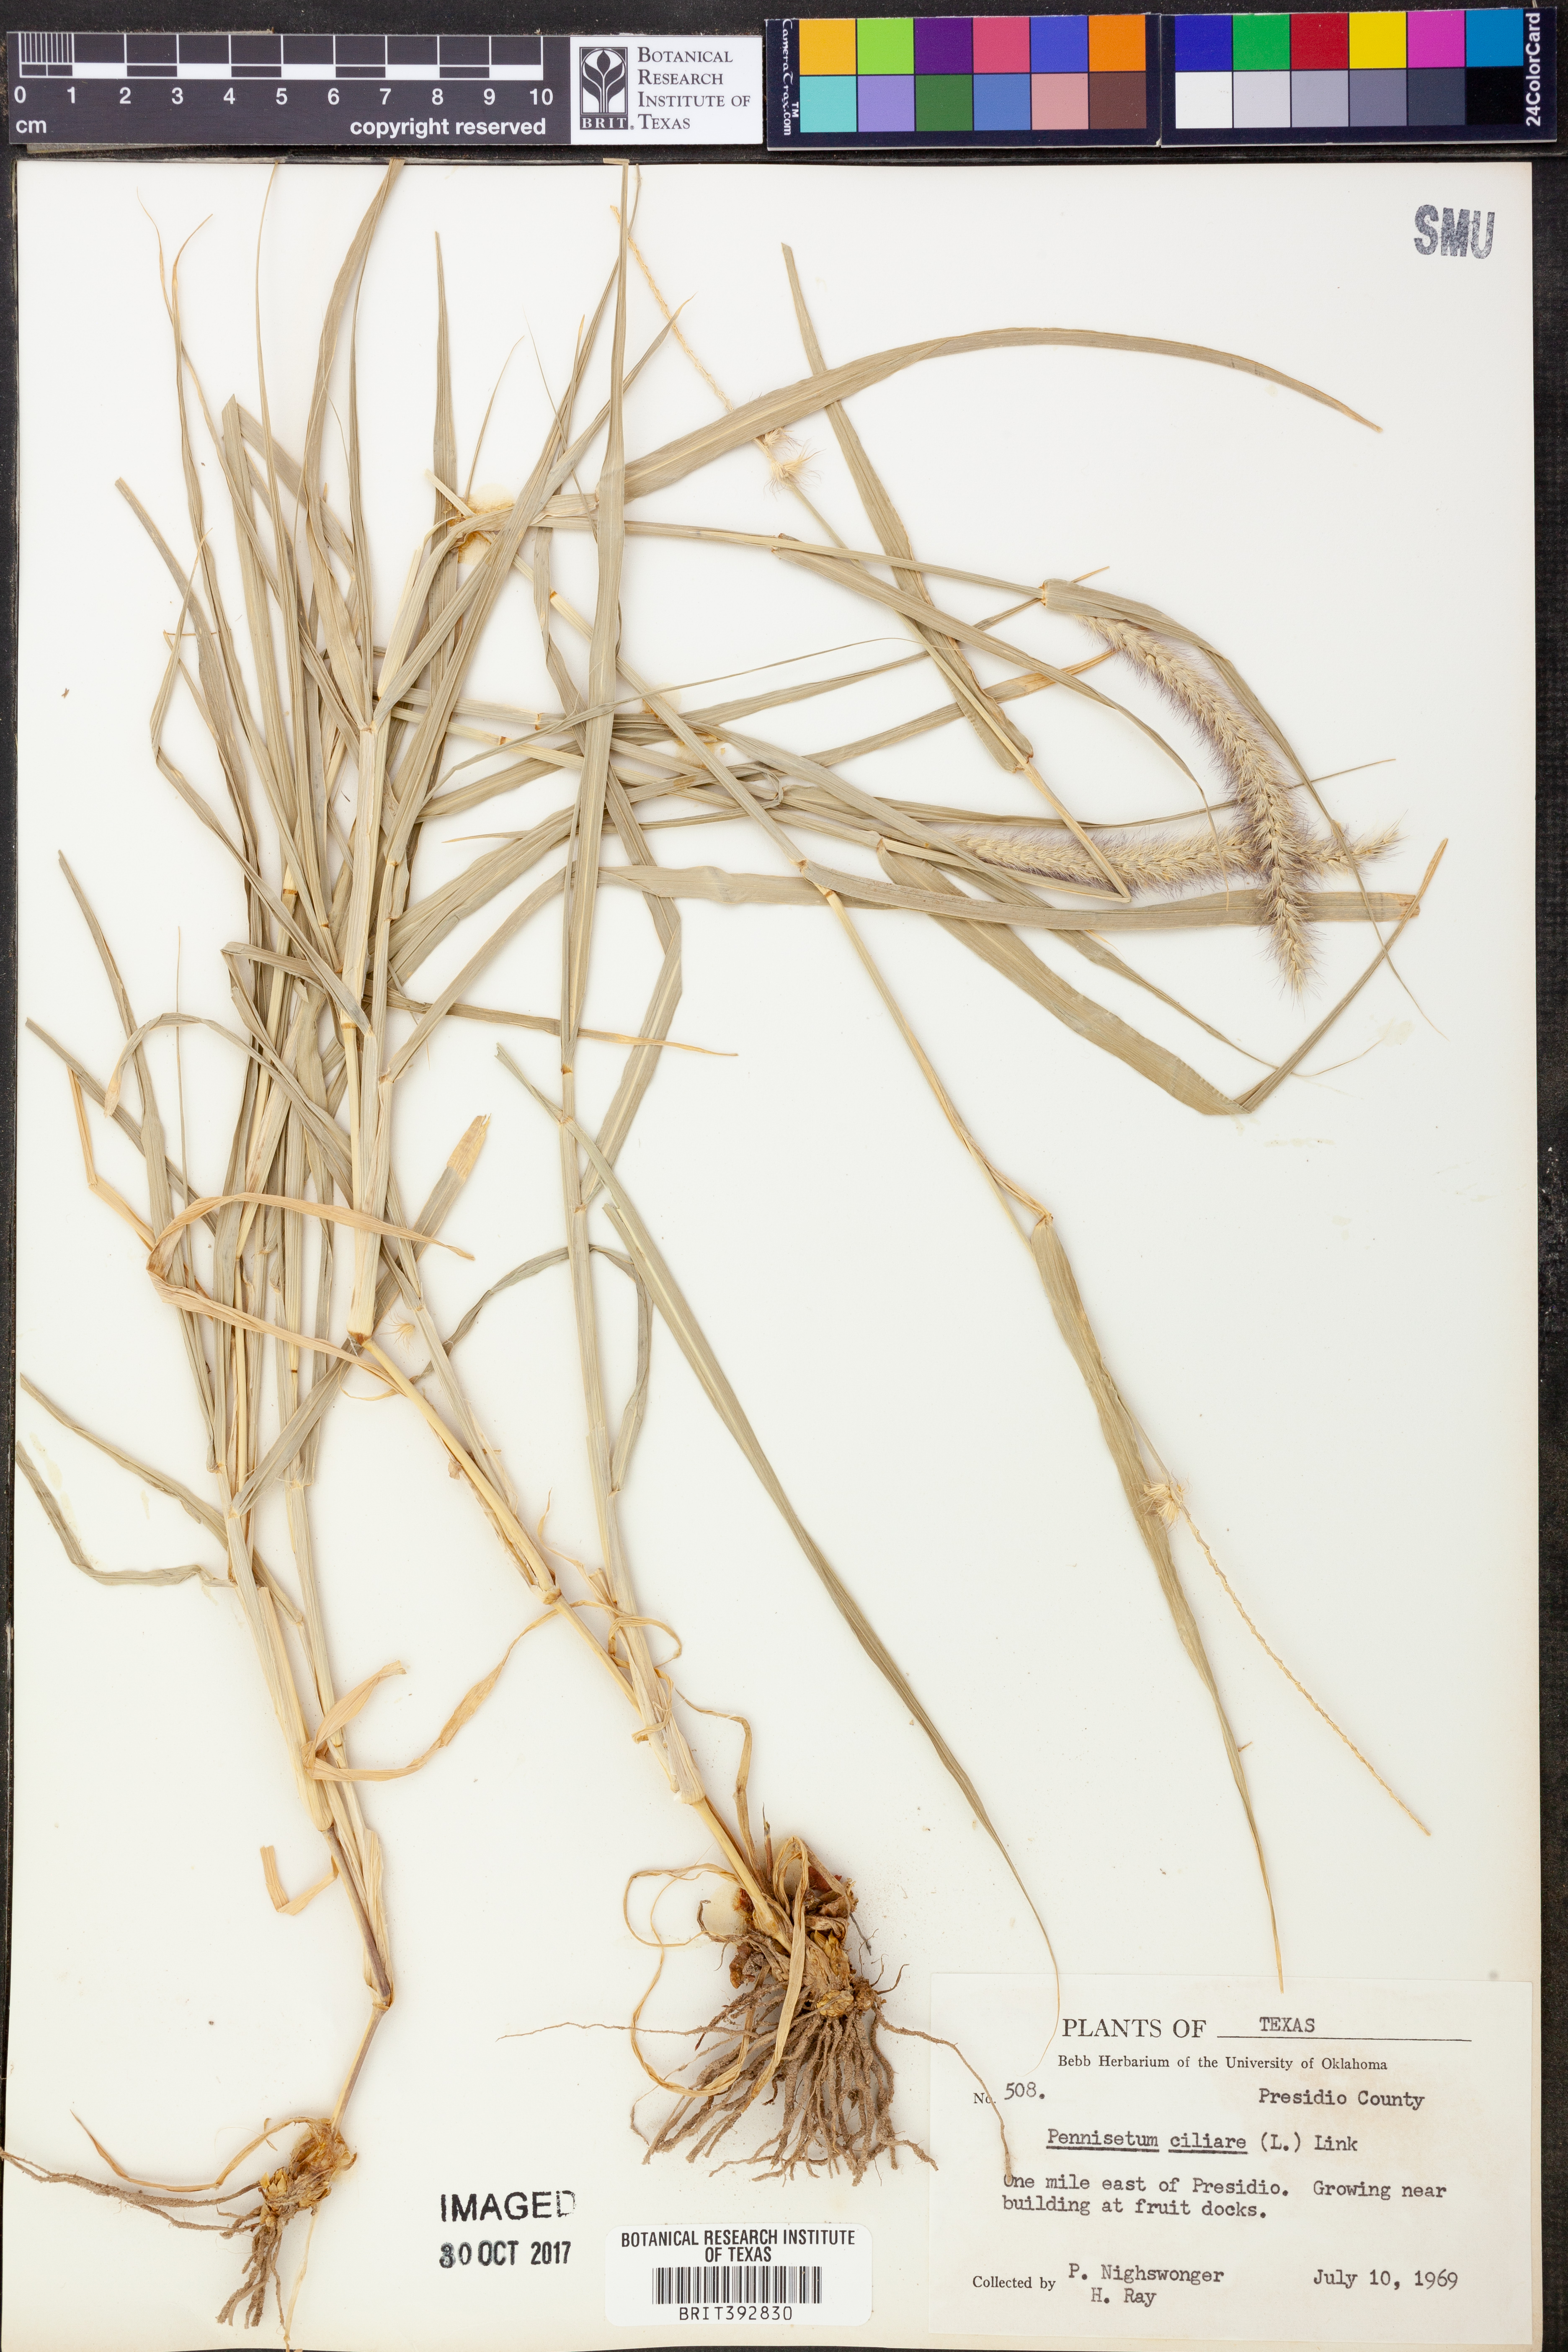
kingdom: Plantae
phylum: Tracheophyta
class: Liliopsida
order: Poales
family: Poaceae
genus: Cenchrus
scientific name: Cenchrus ciliaris
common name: Buffelgrass
